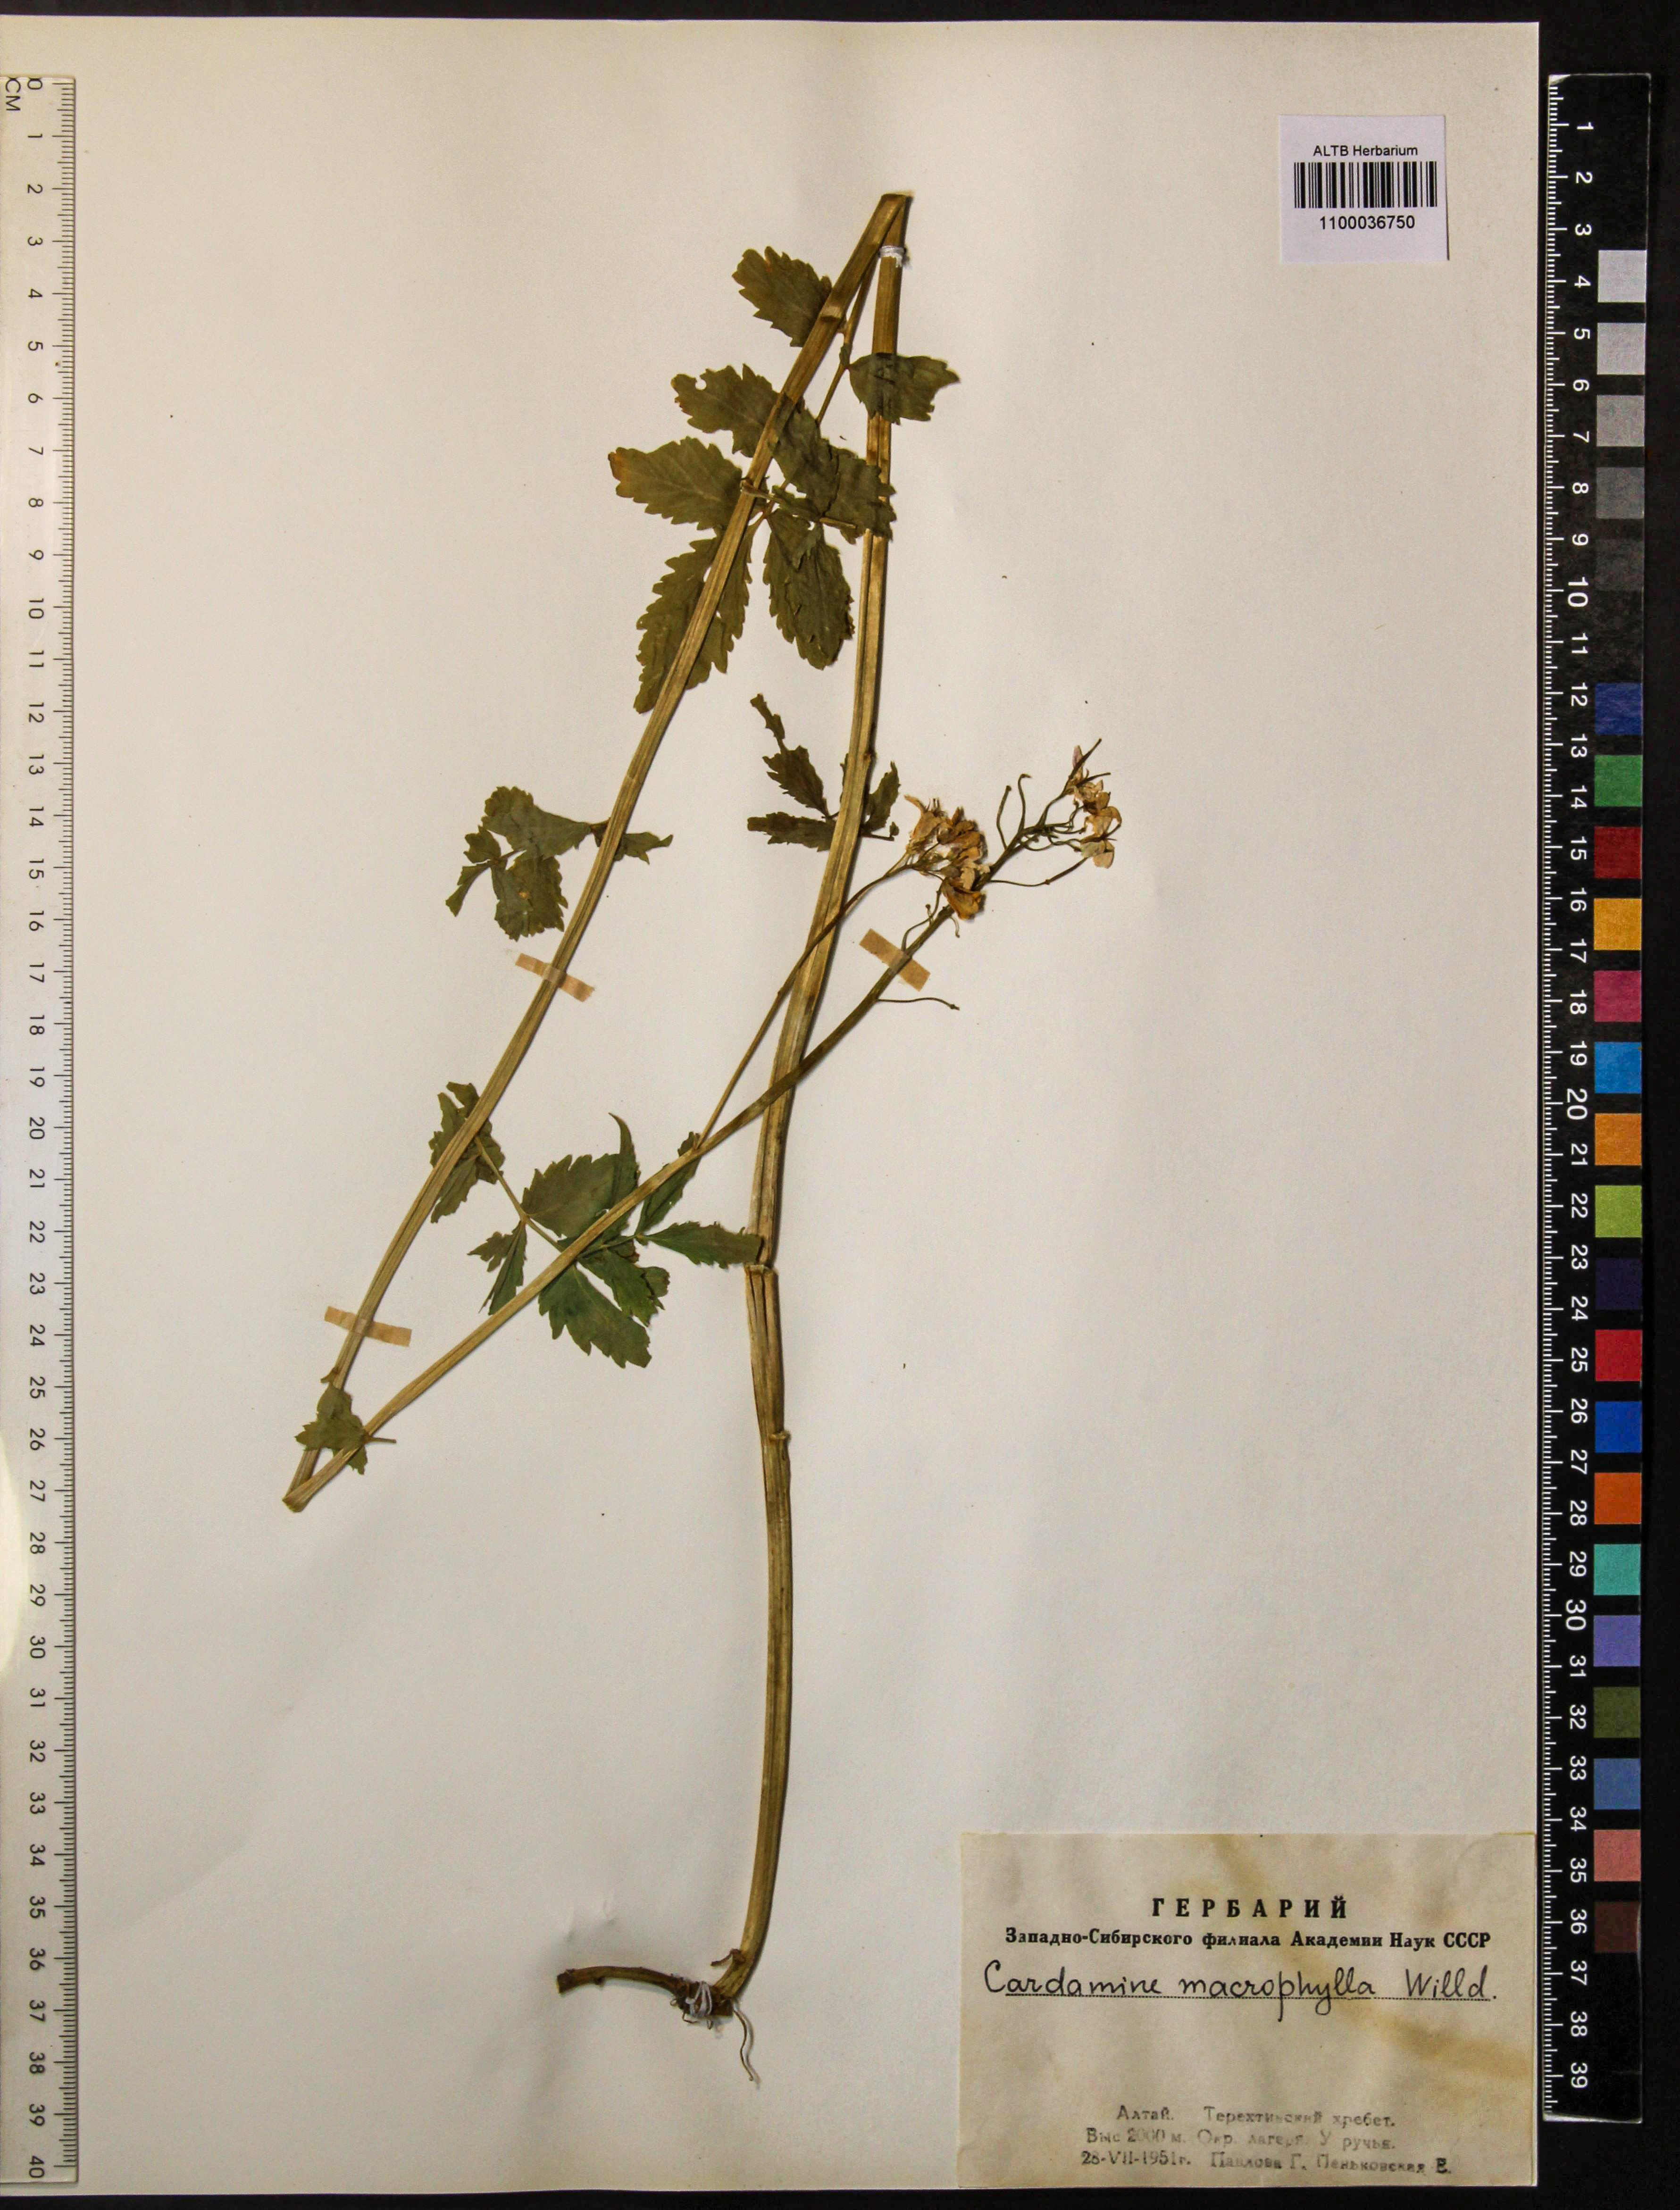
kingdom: Plantae
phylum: Tracheophyta
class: Magnoliopsida
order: Brassicales
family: Brassicaceae
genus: Cardamine
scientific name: Cardamine macrophylla
